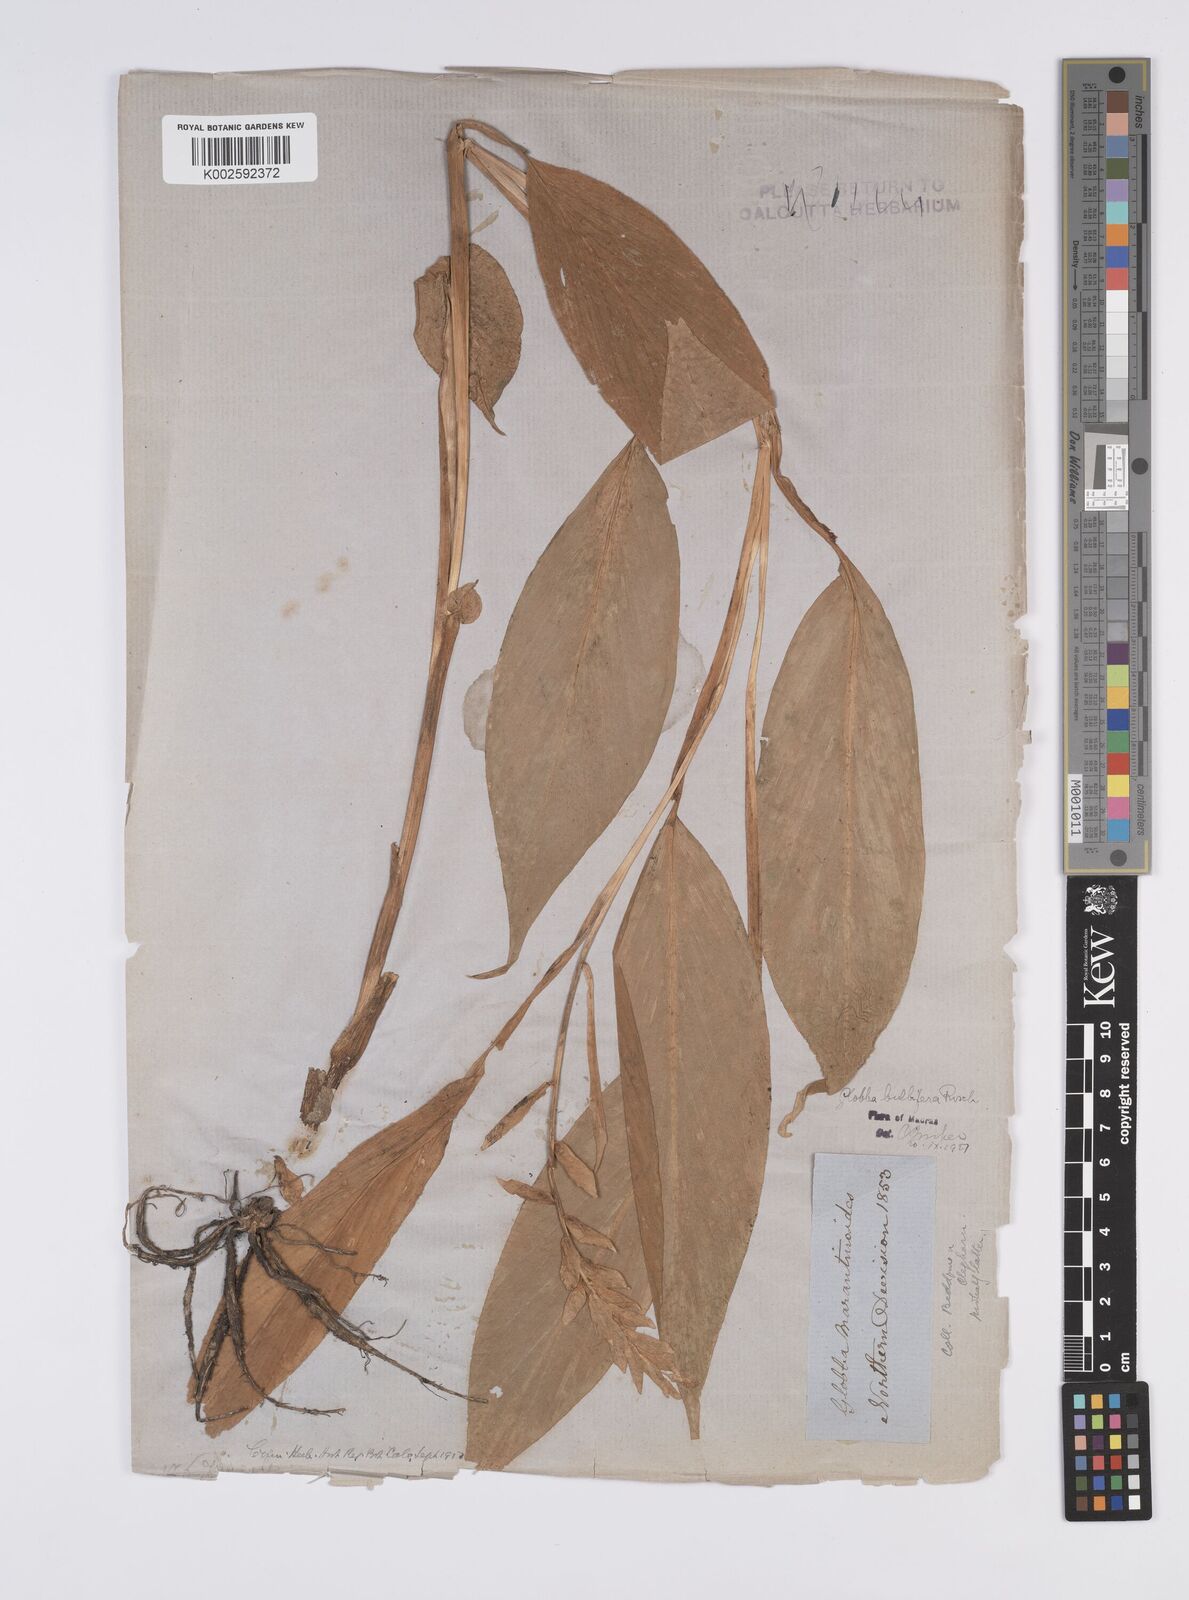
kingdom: Plantae
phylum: Tracheophyta
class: Liliopsida
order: Zingiberales
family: Zingiberaceae
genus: Globba
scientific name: Globba marantina
